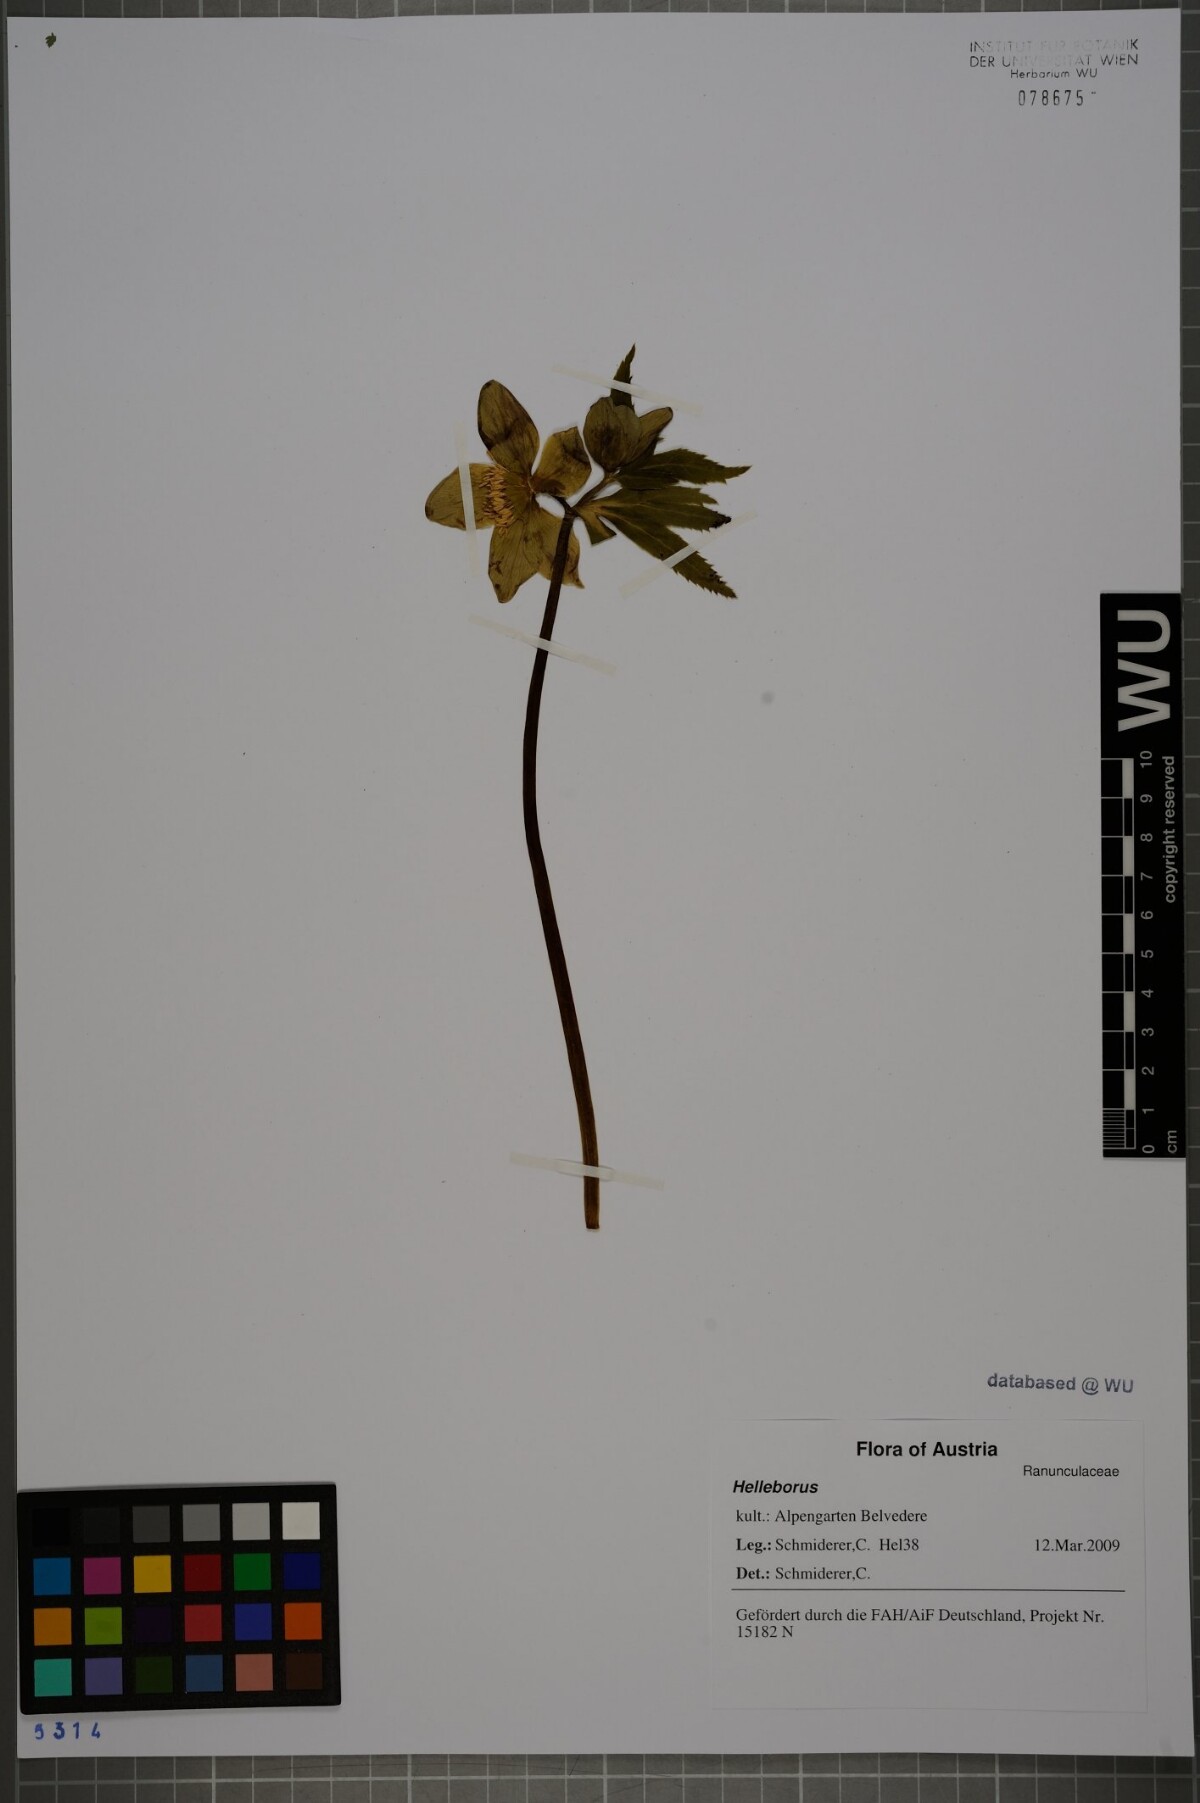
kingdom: Plantae
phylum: Tracheophyta
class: Magnoliopsida
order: Ranunculales
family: Ranunculaceae
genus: Helleborus
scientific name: Helleborus
